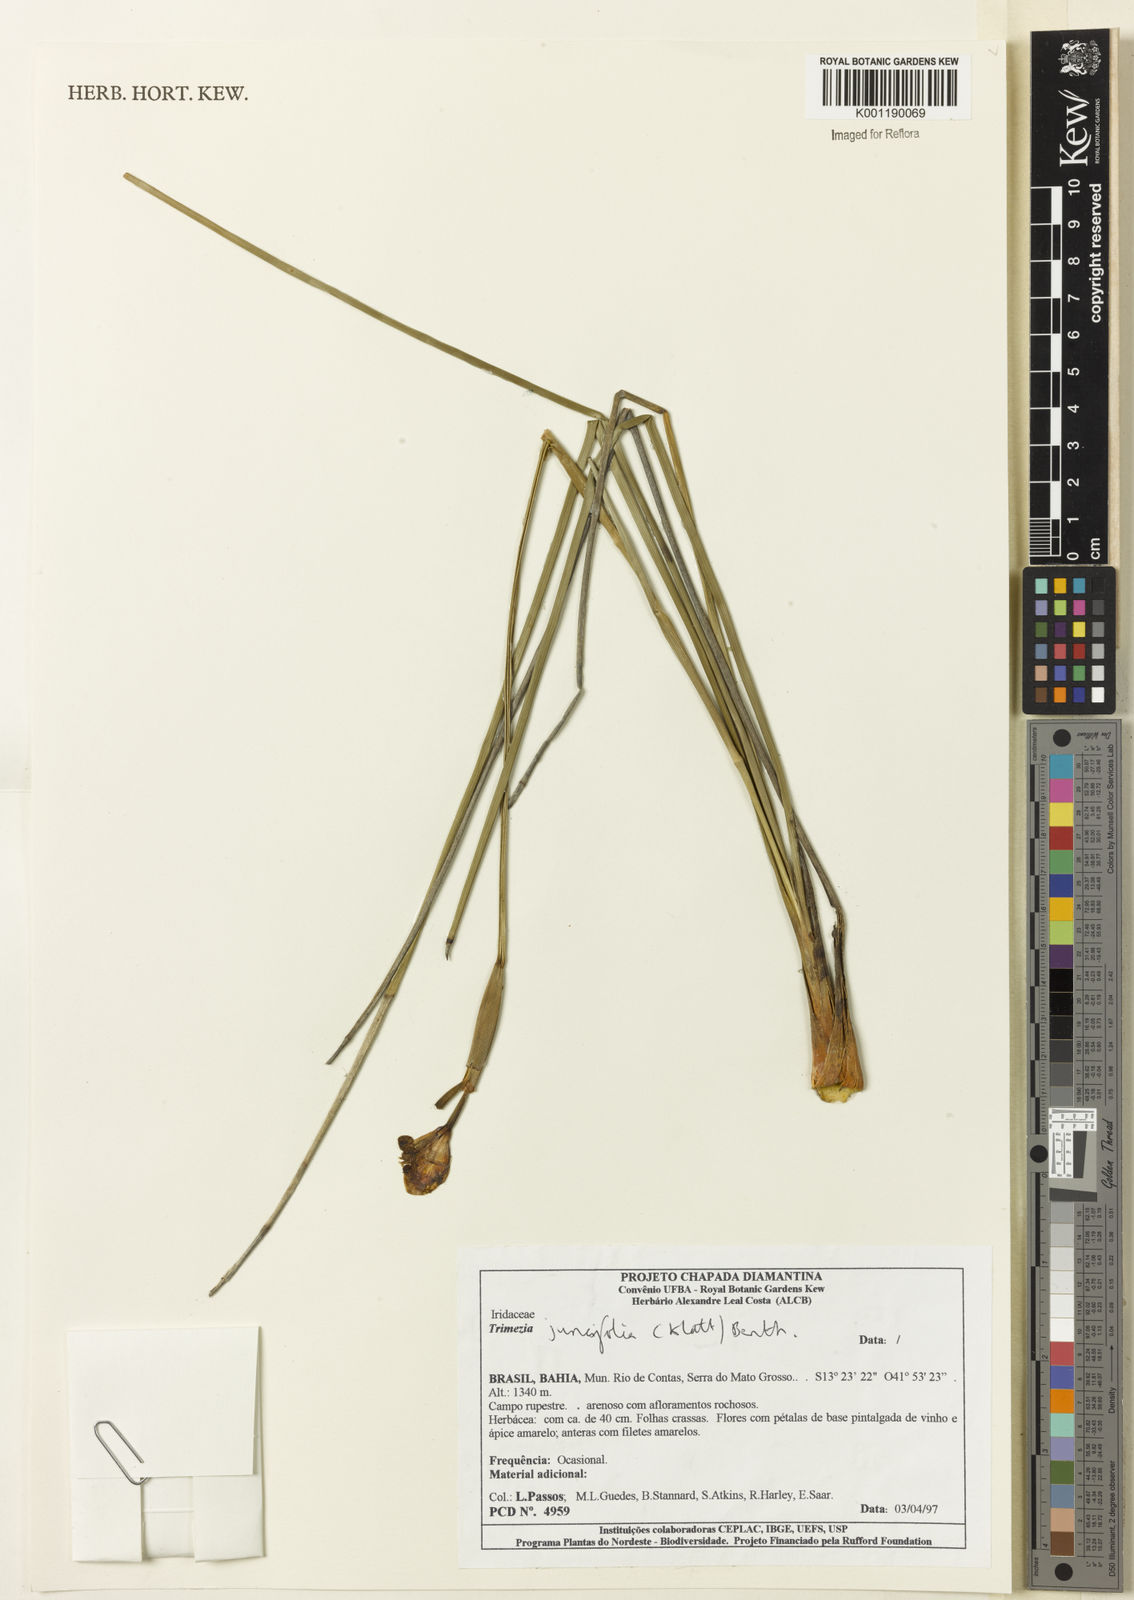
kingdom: Plantae
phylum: Tracheophyta
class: Liliopsida
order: Asparagales
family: Iridaceae
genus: Trimezia
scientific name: Trimezia juncifolia
